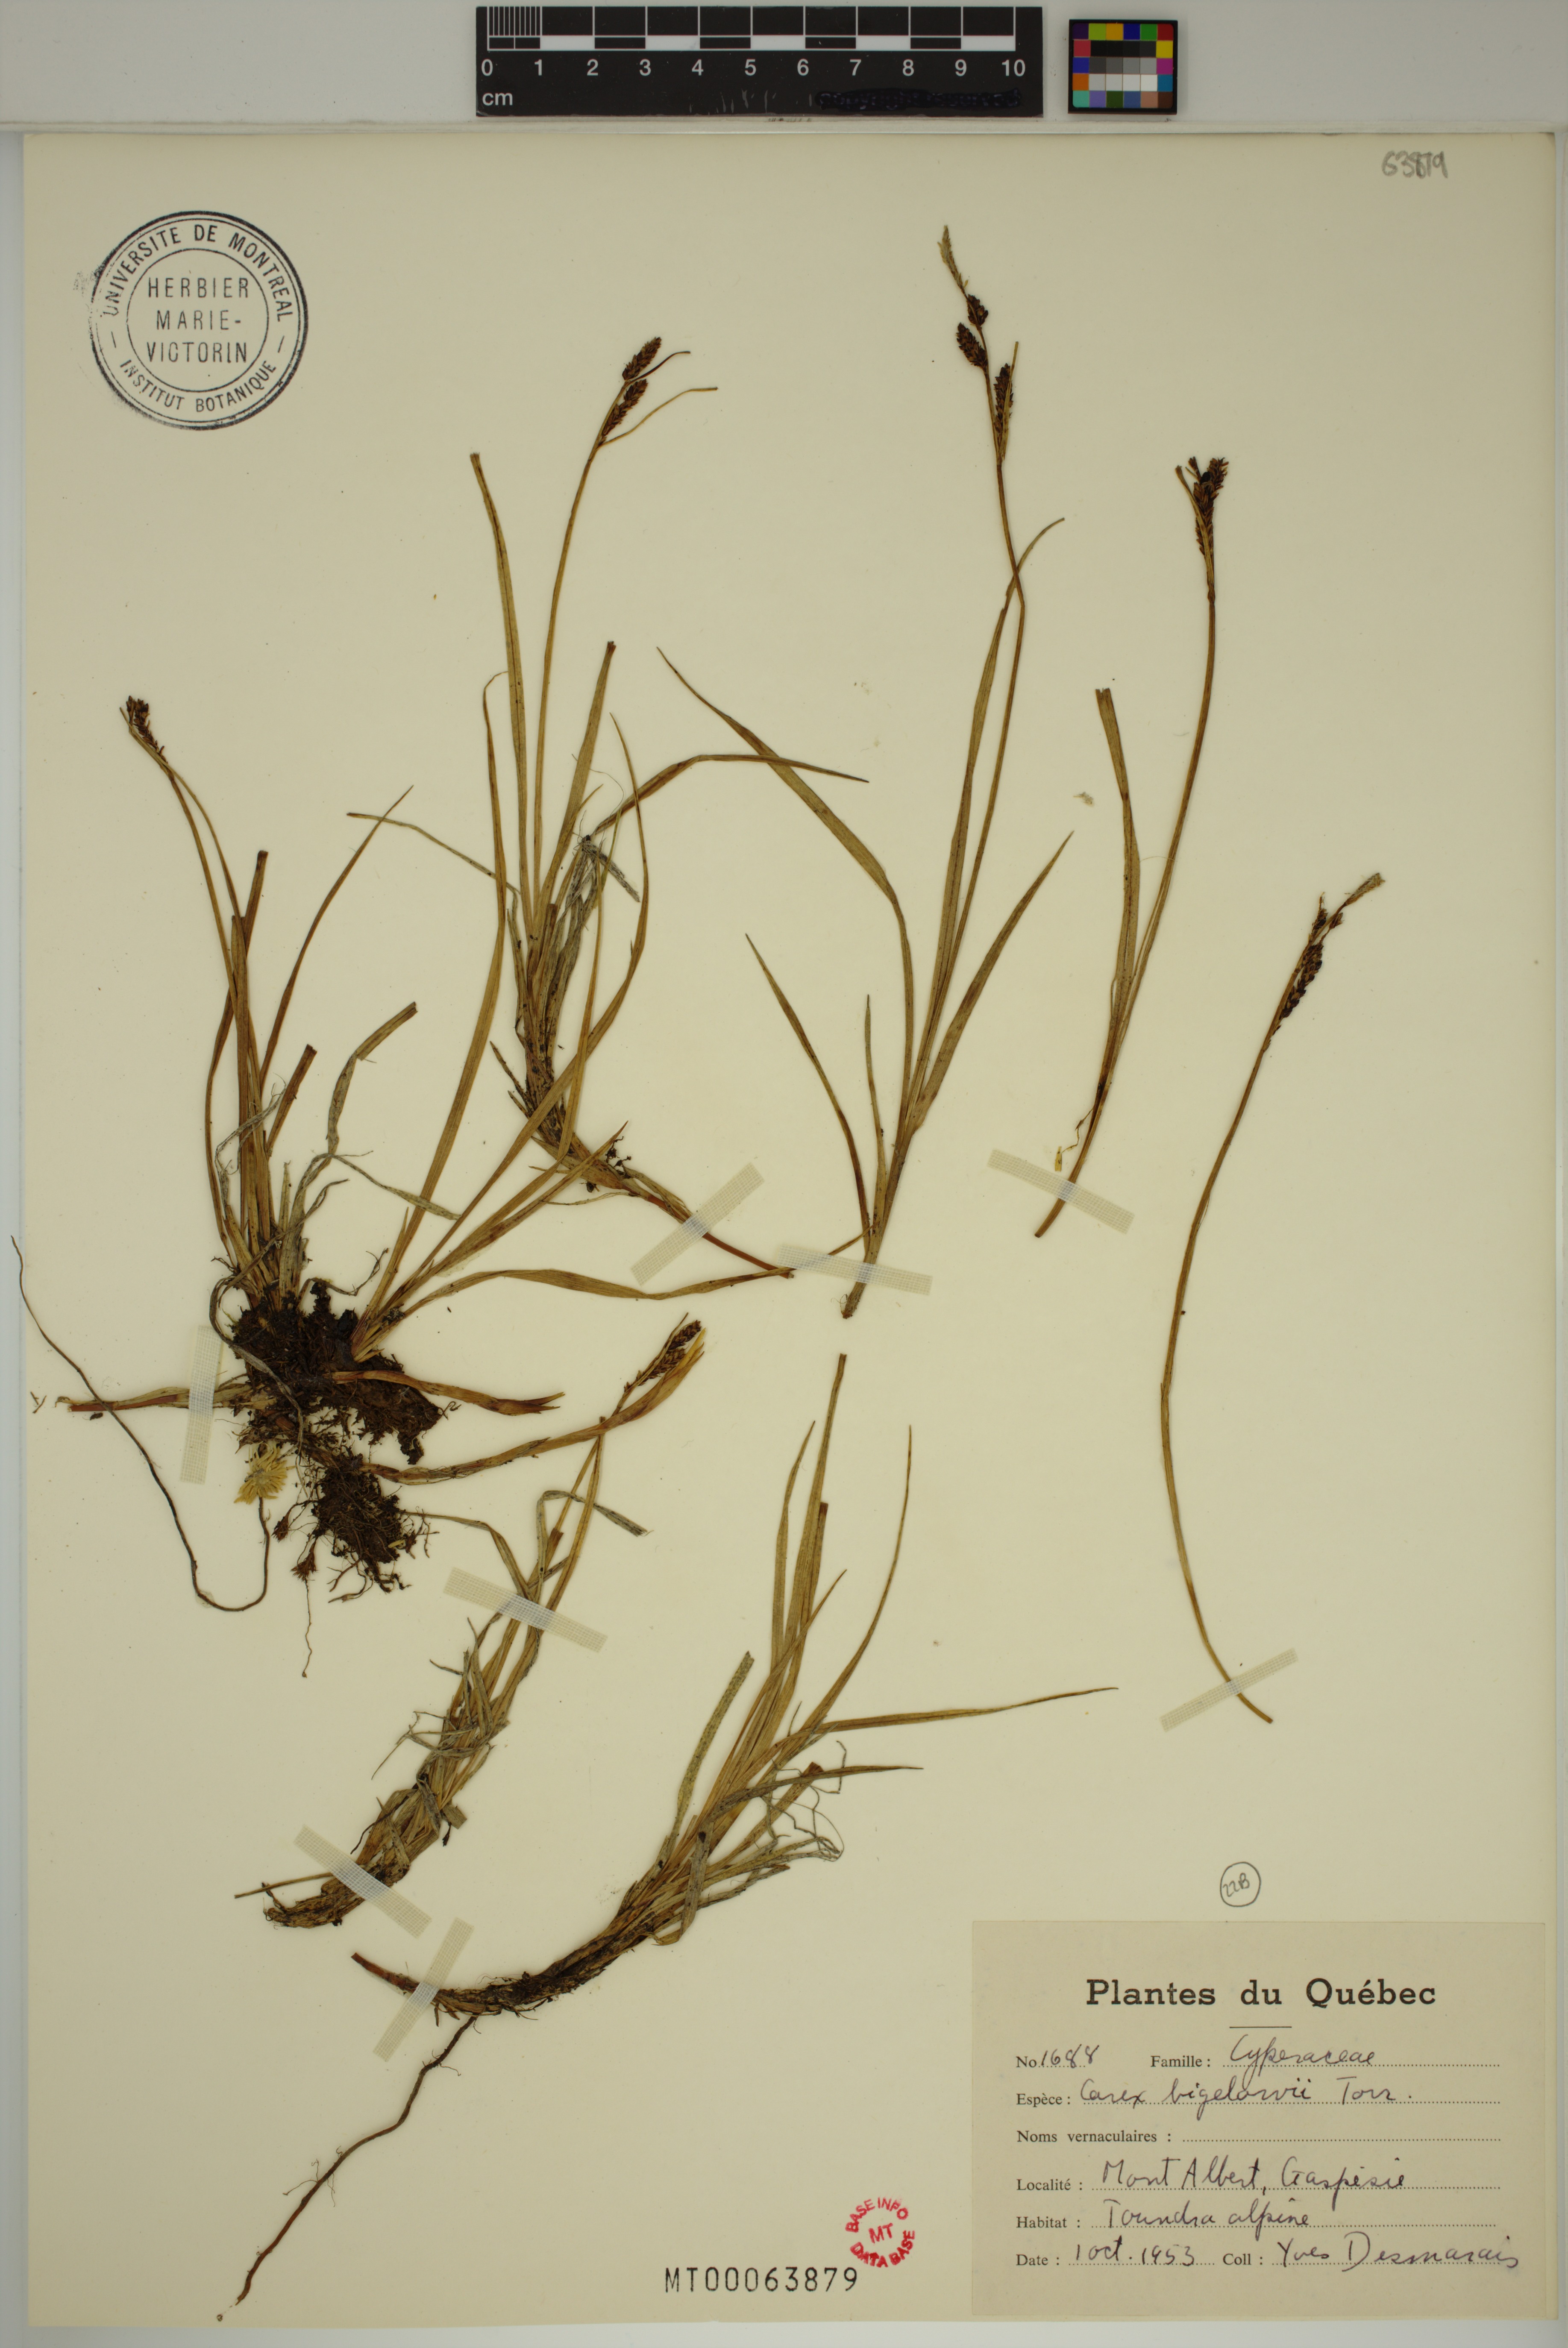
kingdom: Plantae
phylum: Tracheophyta
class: Liliopsida
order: Poales
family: Cyperaceae
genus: Carex
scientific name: Carex bigelowii
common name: Stiff sedge
